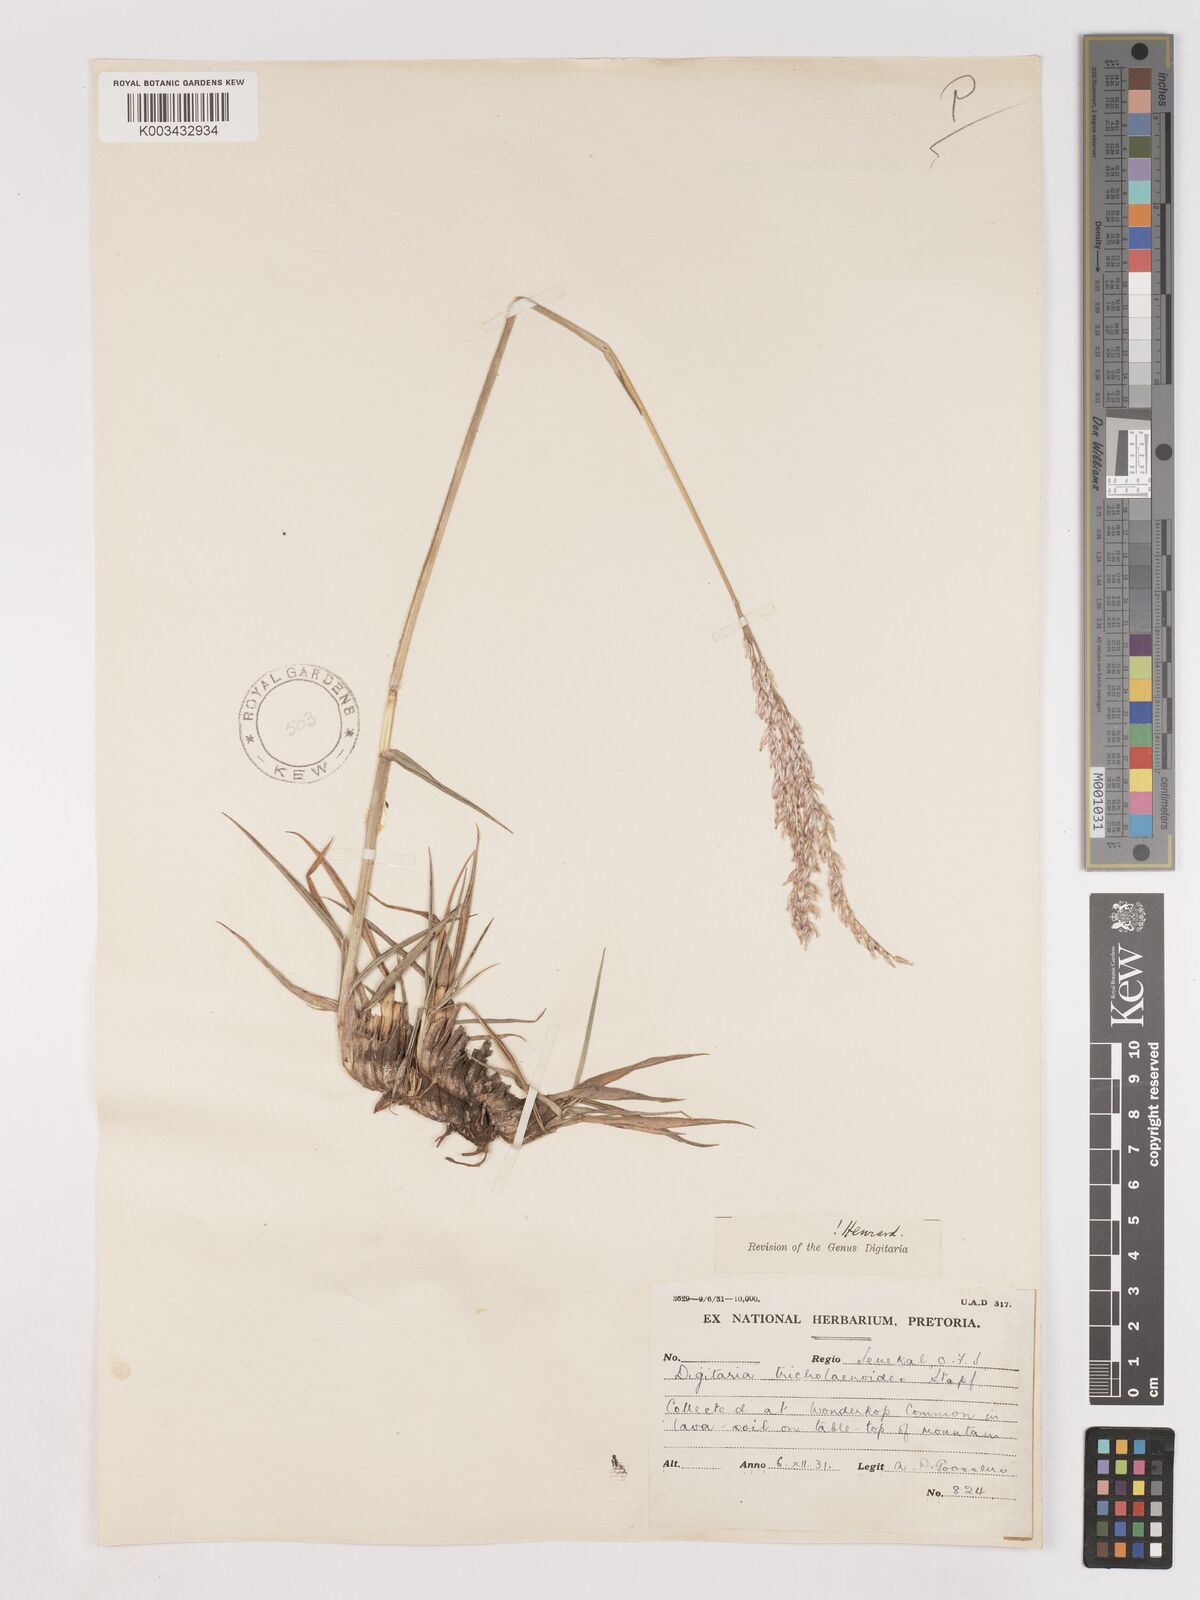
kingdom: Plantae
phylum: Tracheophyta
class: Liliopsida
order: Poales
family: Poaceae
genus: Digitaria
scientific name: Digitaria tricholaenoides
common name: Purple finger grass
